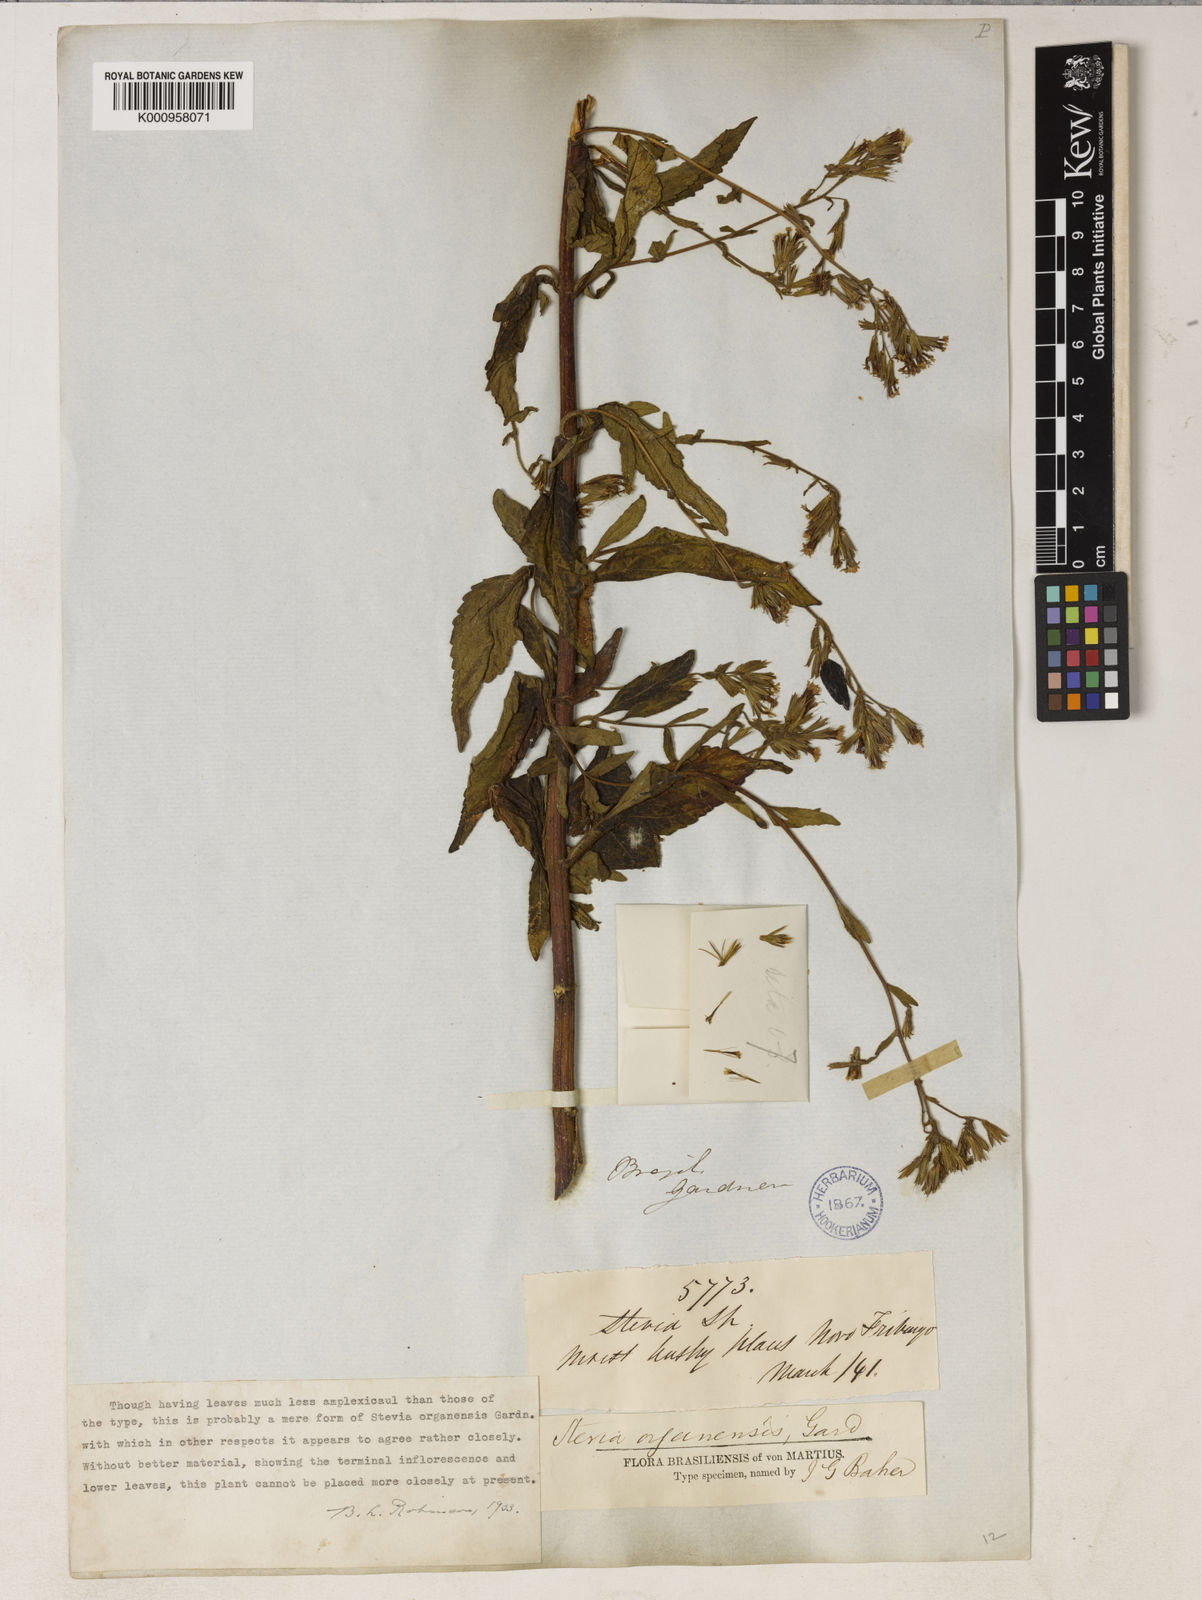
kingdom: Plantae
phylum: Tracheophyta
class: Magnoliopsida
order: Asterales
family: Asteraceae
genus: Stevia
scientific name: Stevia organensis
